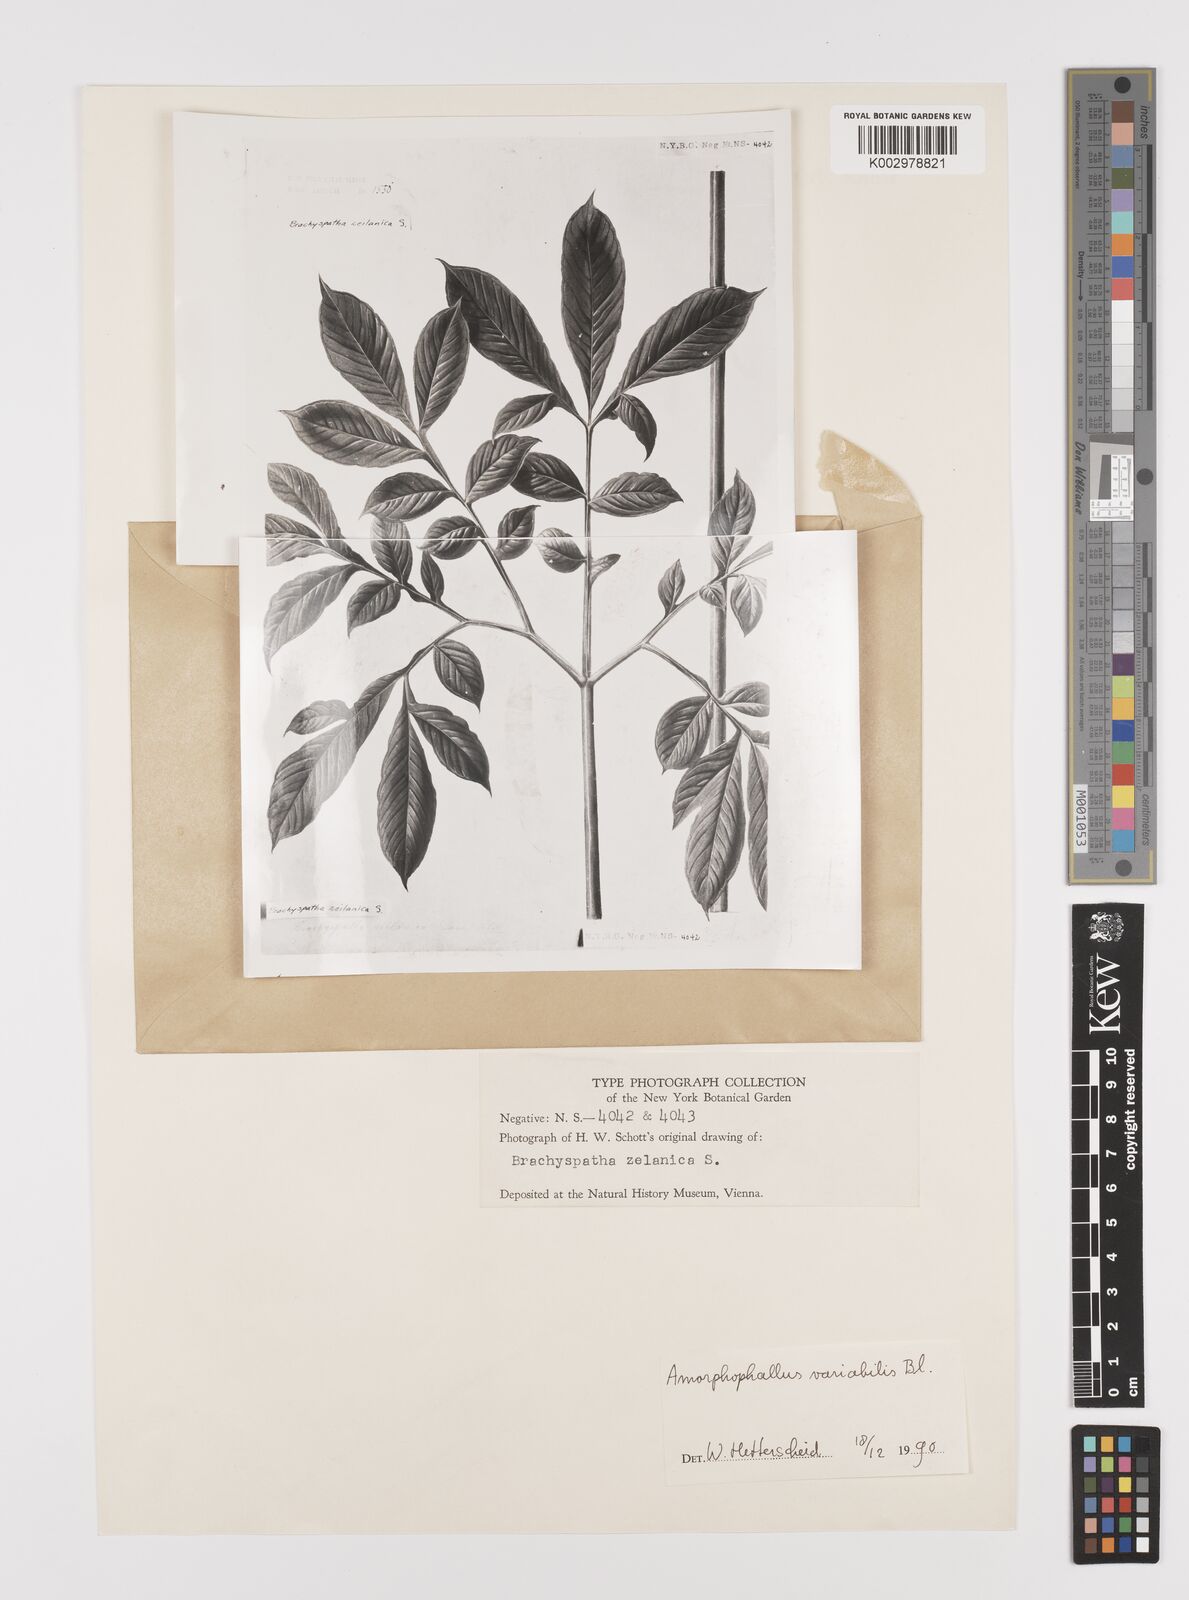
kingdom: Plantae
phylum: Tracheophyta
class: Liliopsida
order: Alismatales
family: Araceae
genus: Amorphophallus
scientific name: Amorphophallus variabilis
